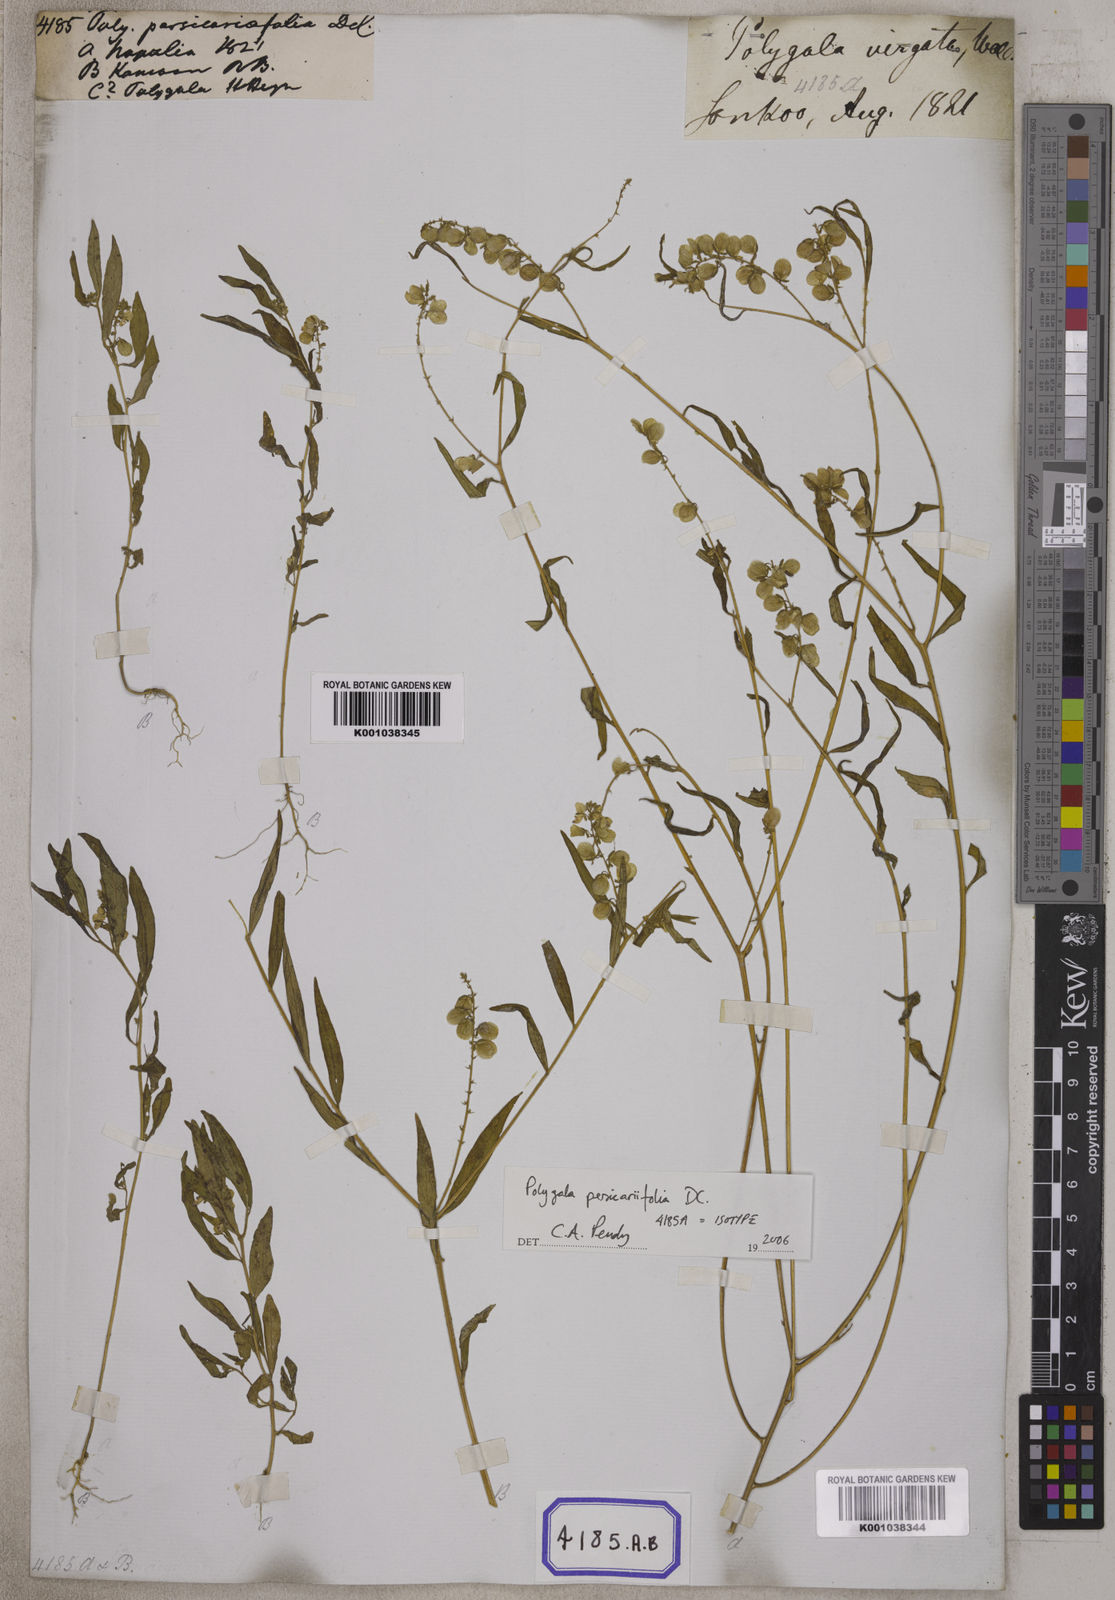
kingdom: Plantae
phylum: Tracheophyta
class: Magnoliopsida
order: Fabales
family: Polygalaceae
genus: Polygala
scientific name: Polygala
